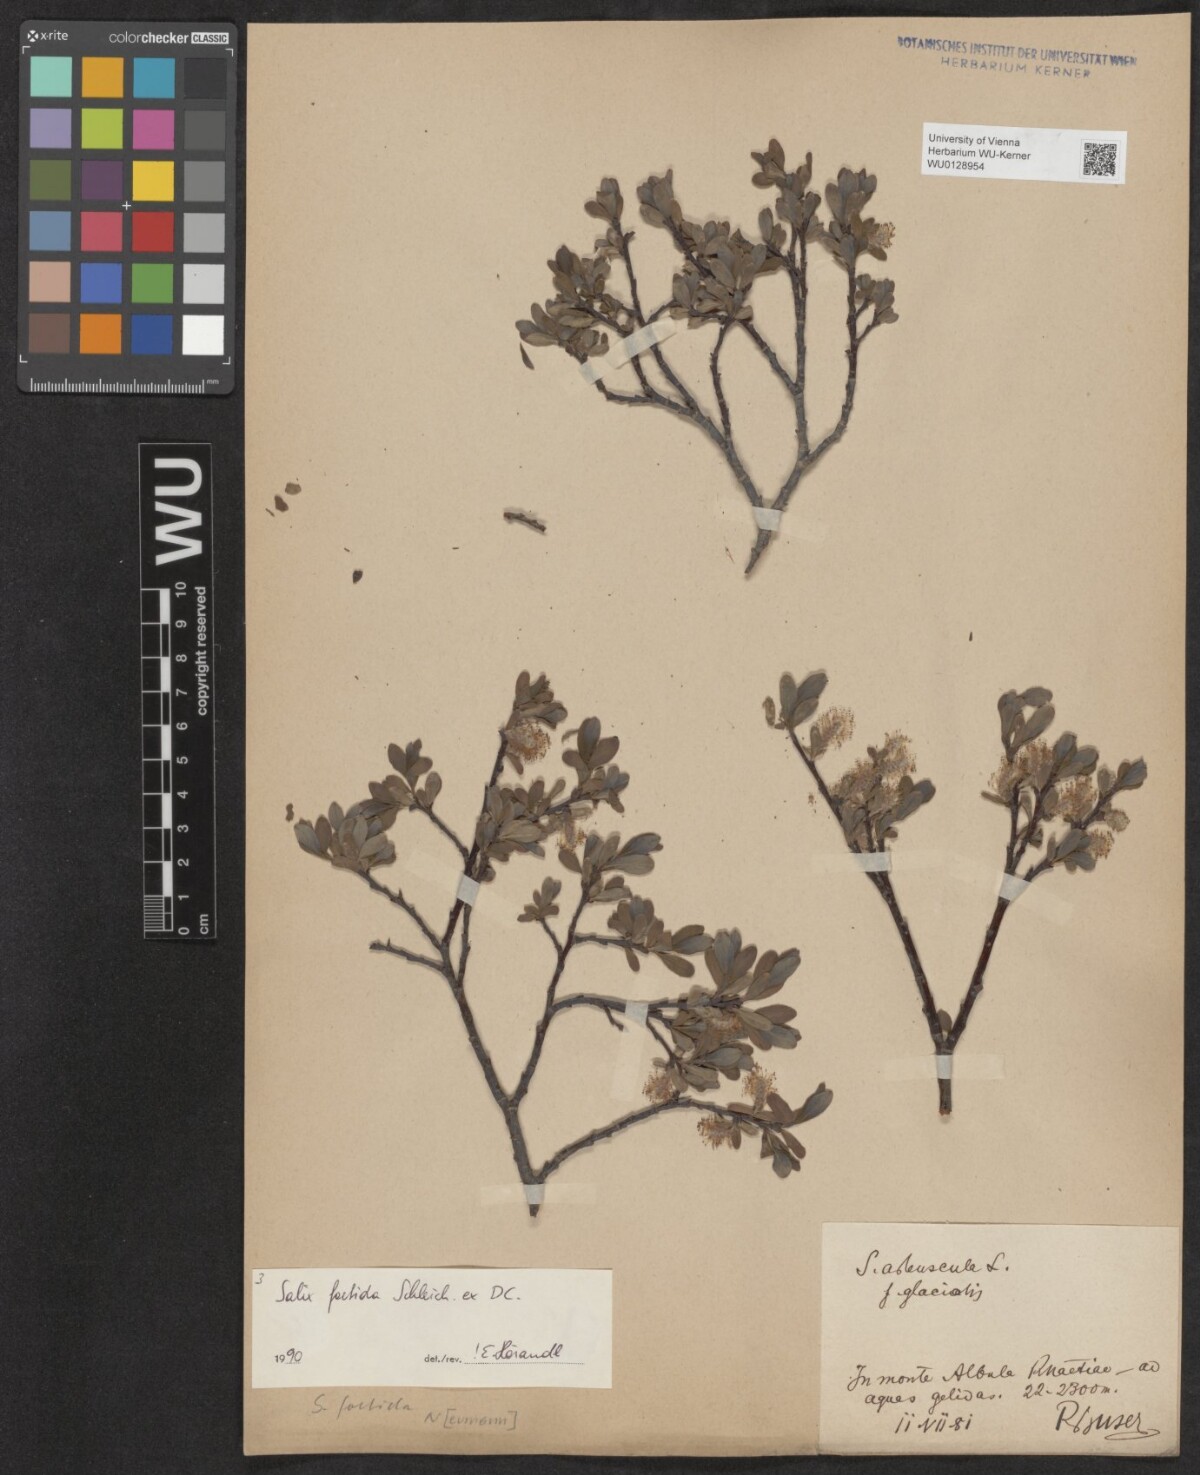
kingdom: Plantae
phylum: Tracheophyta
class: Magnoliopsida
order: Malpighiales
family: Salicaceae
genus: Salix
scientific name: Salix foetida
